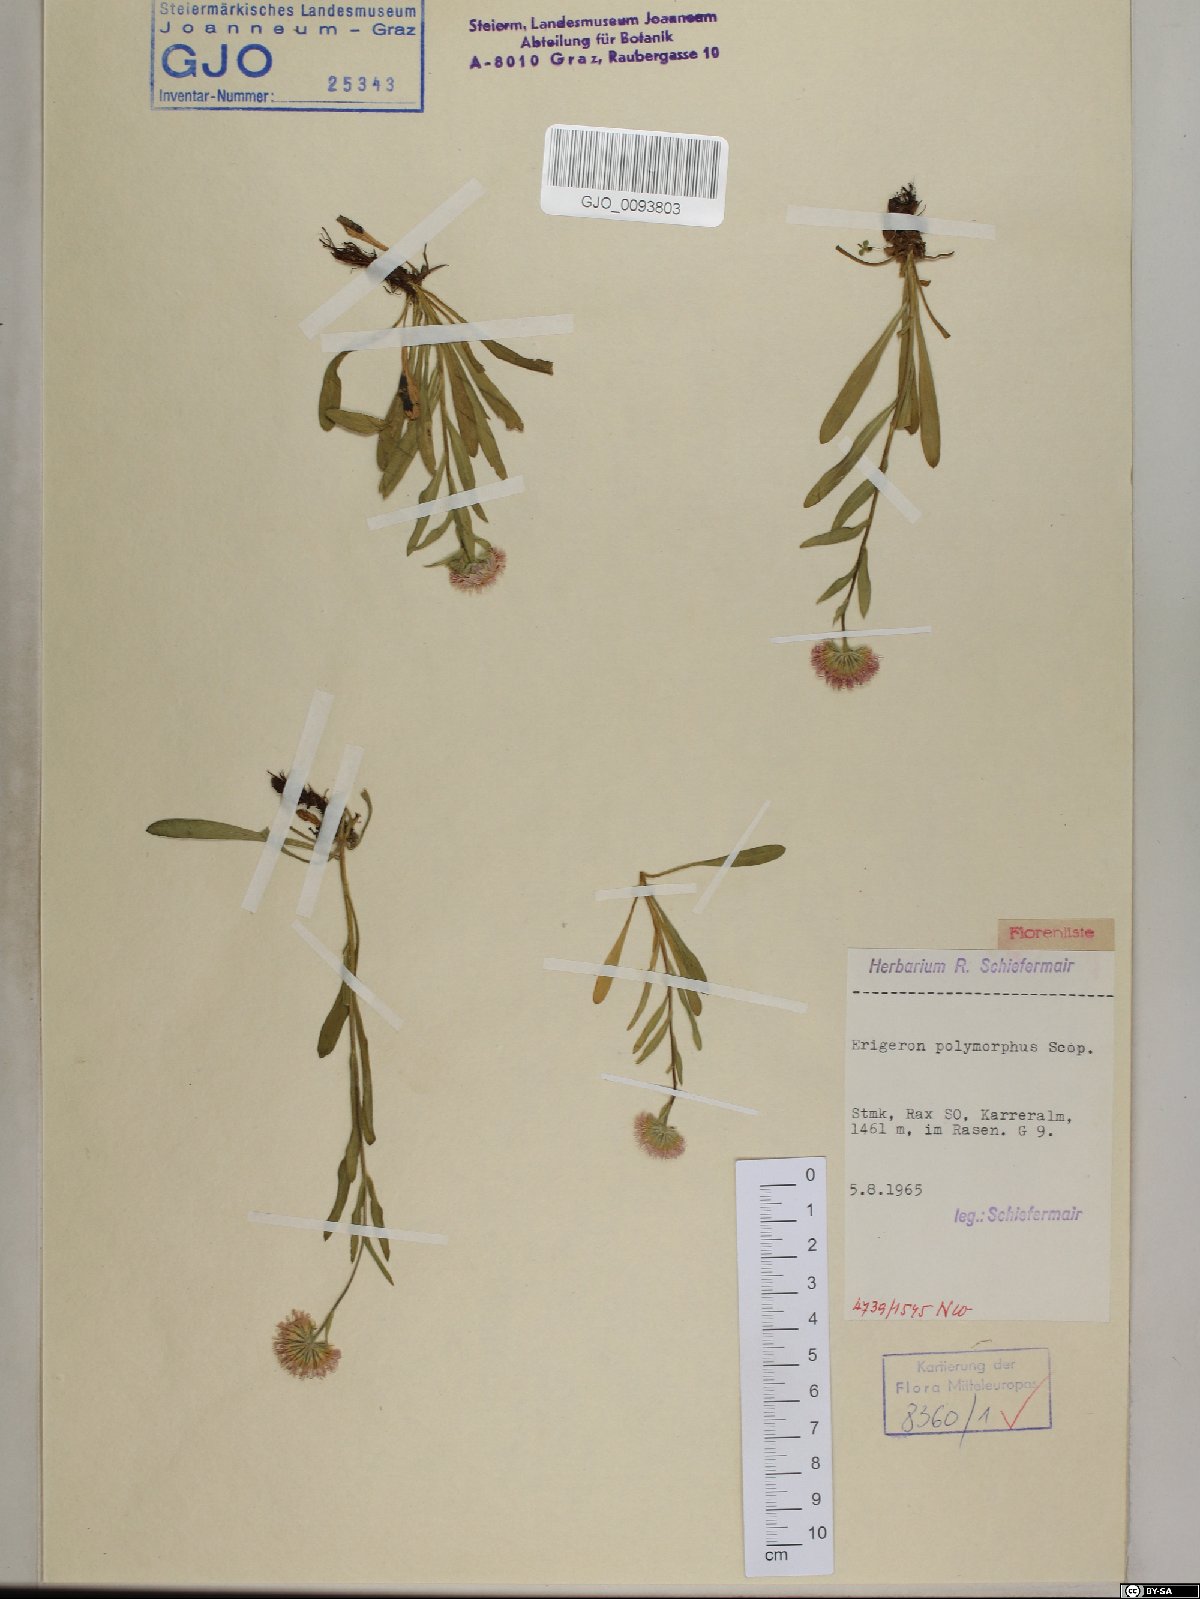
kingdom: Plantae
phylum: Tracheophyta
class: Magnoliopsida
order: Asterales
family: Asteraceae
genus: Erigeron
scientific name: Erigeron alpinus
